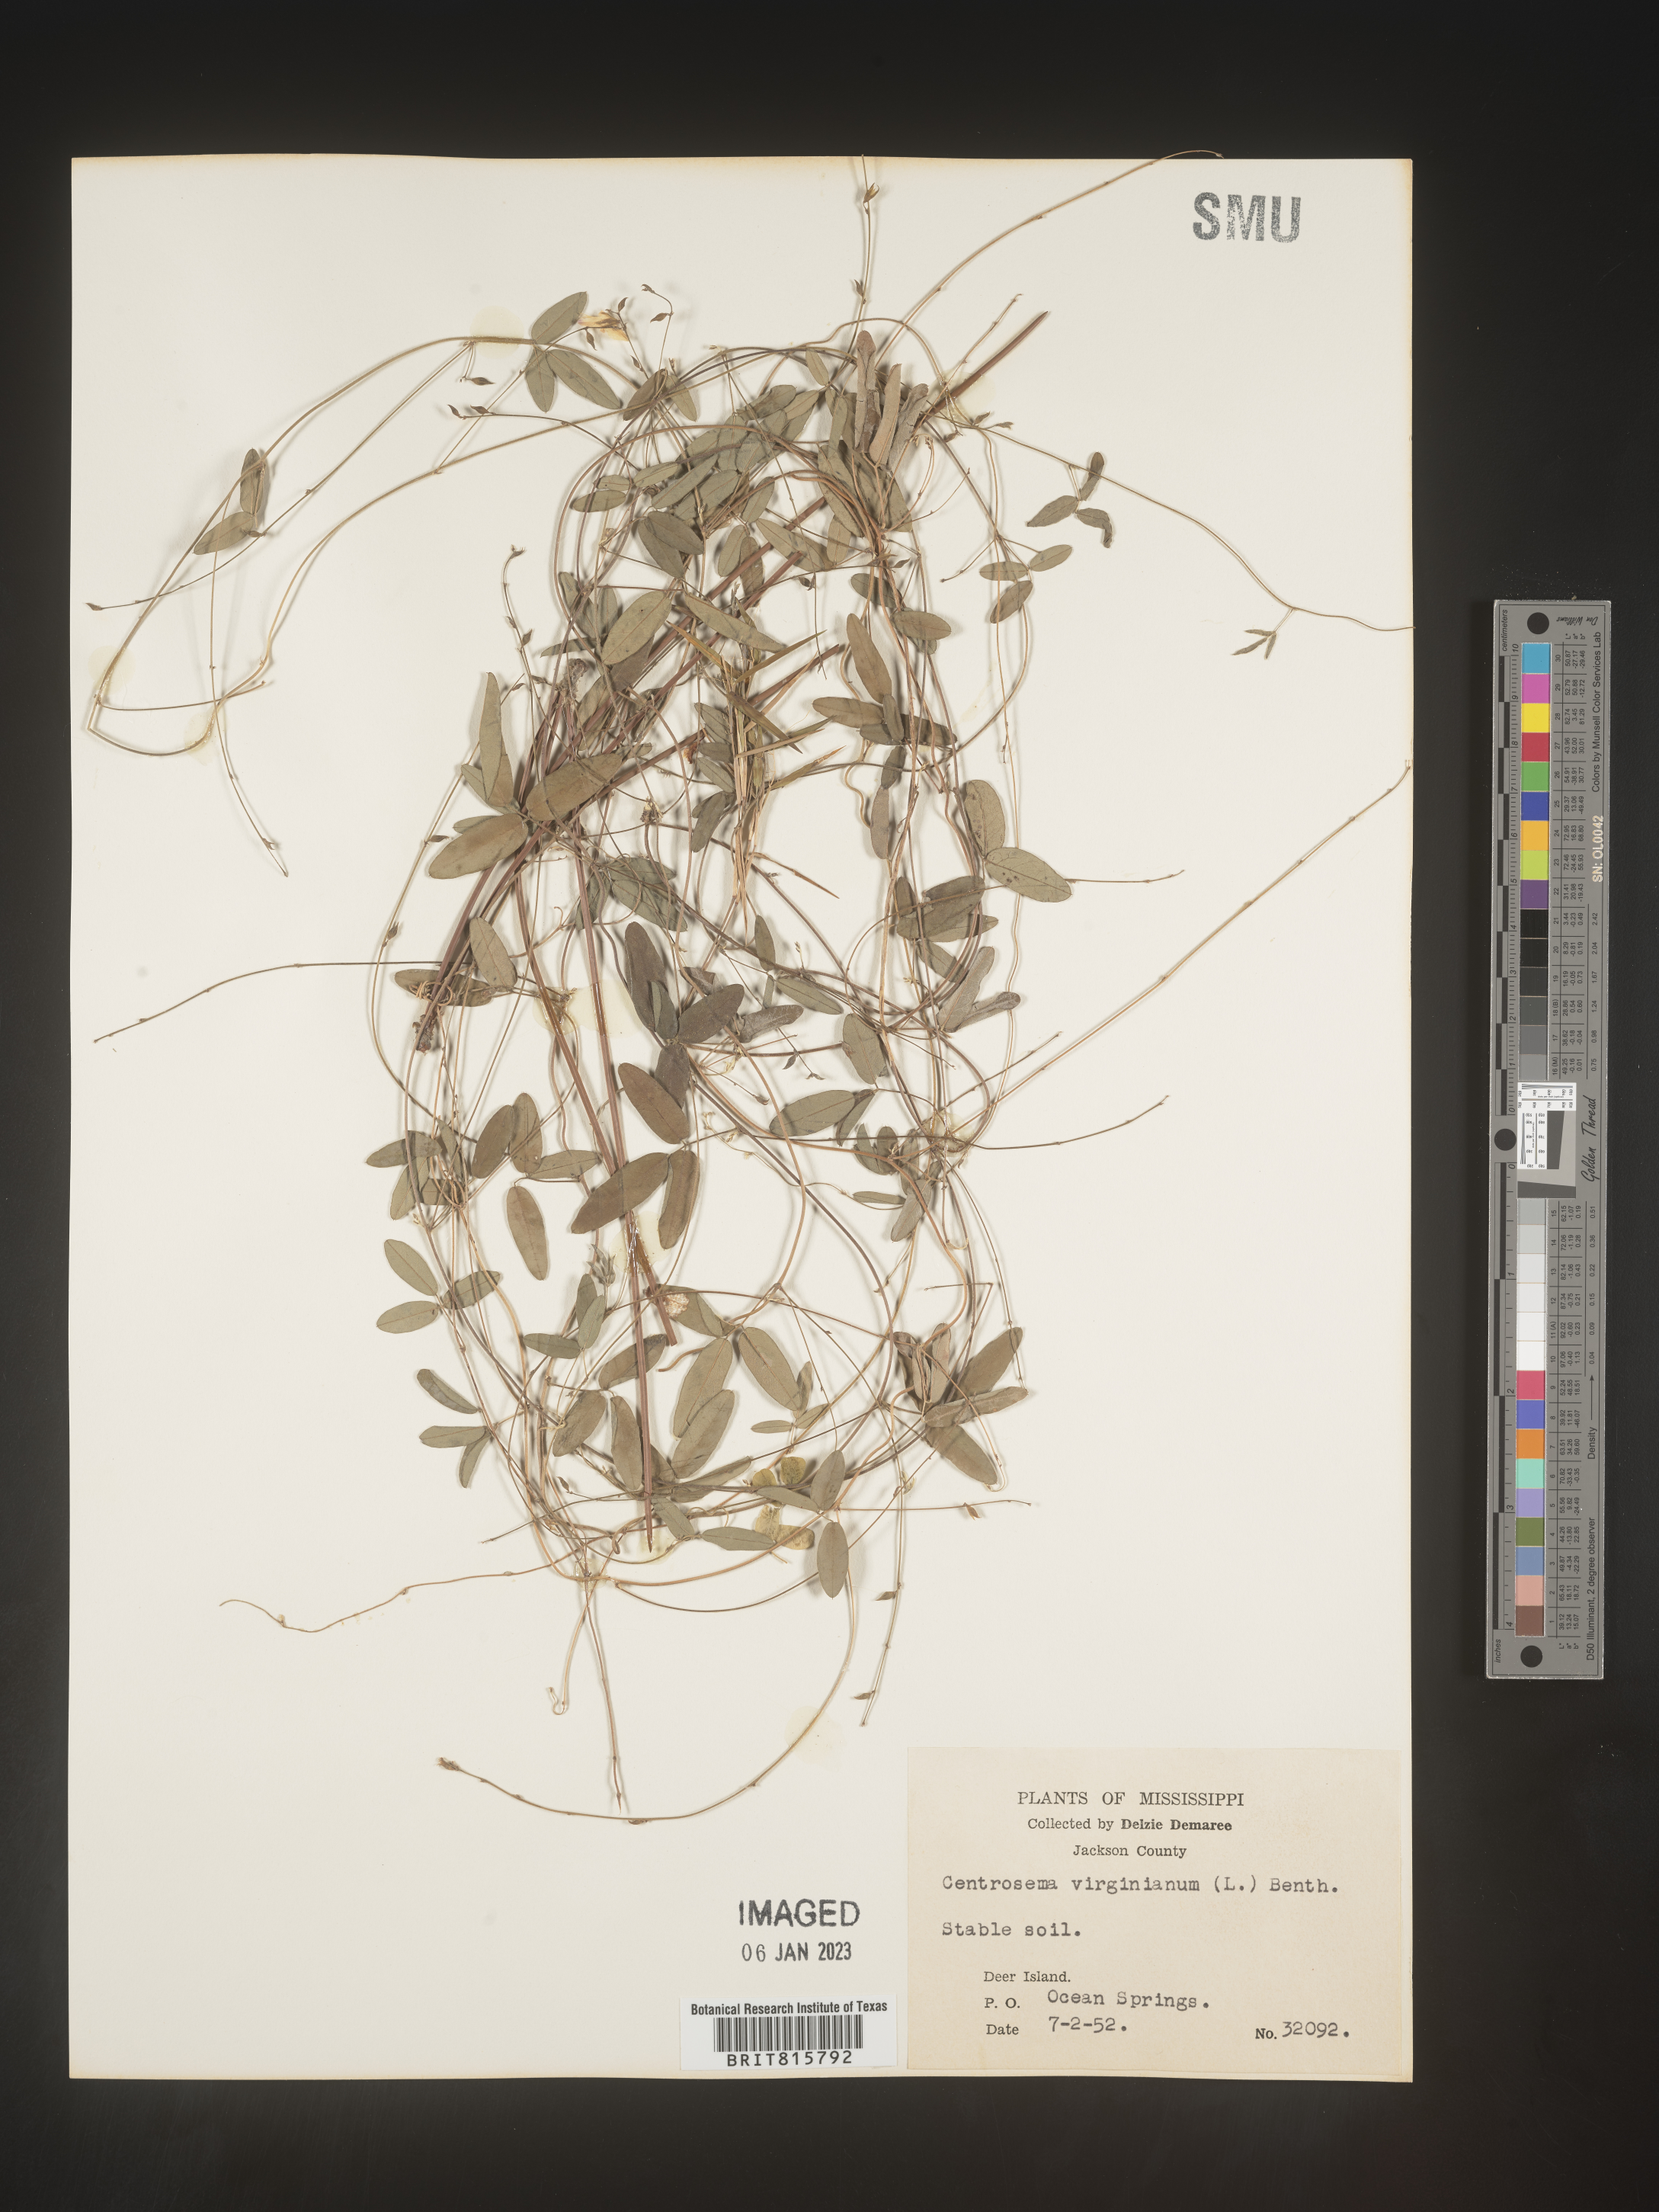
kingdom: Plantae
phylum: Tracheophyta
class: Magnoliopsida
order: Fabales
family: Fabaceae
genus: Centrosema
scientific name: Centrosema virginianum
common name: Butterfly-pea
